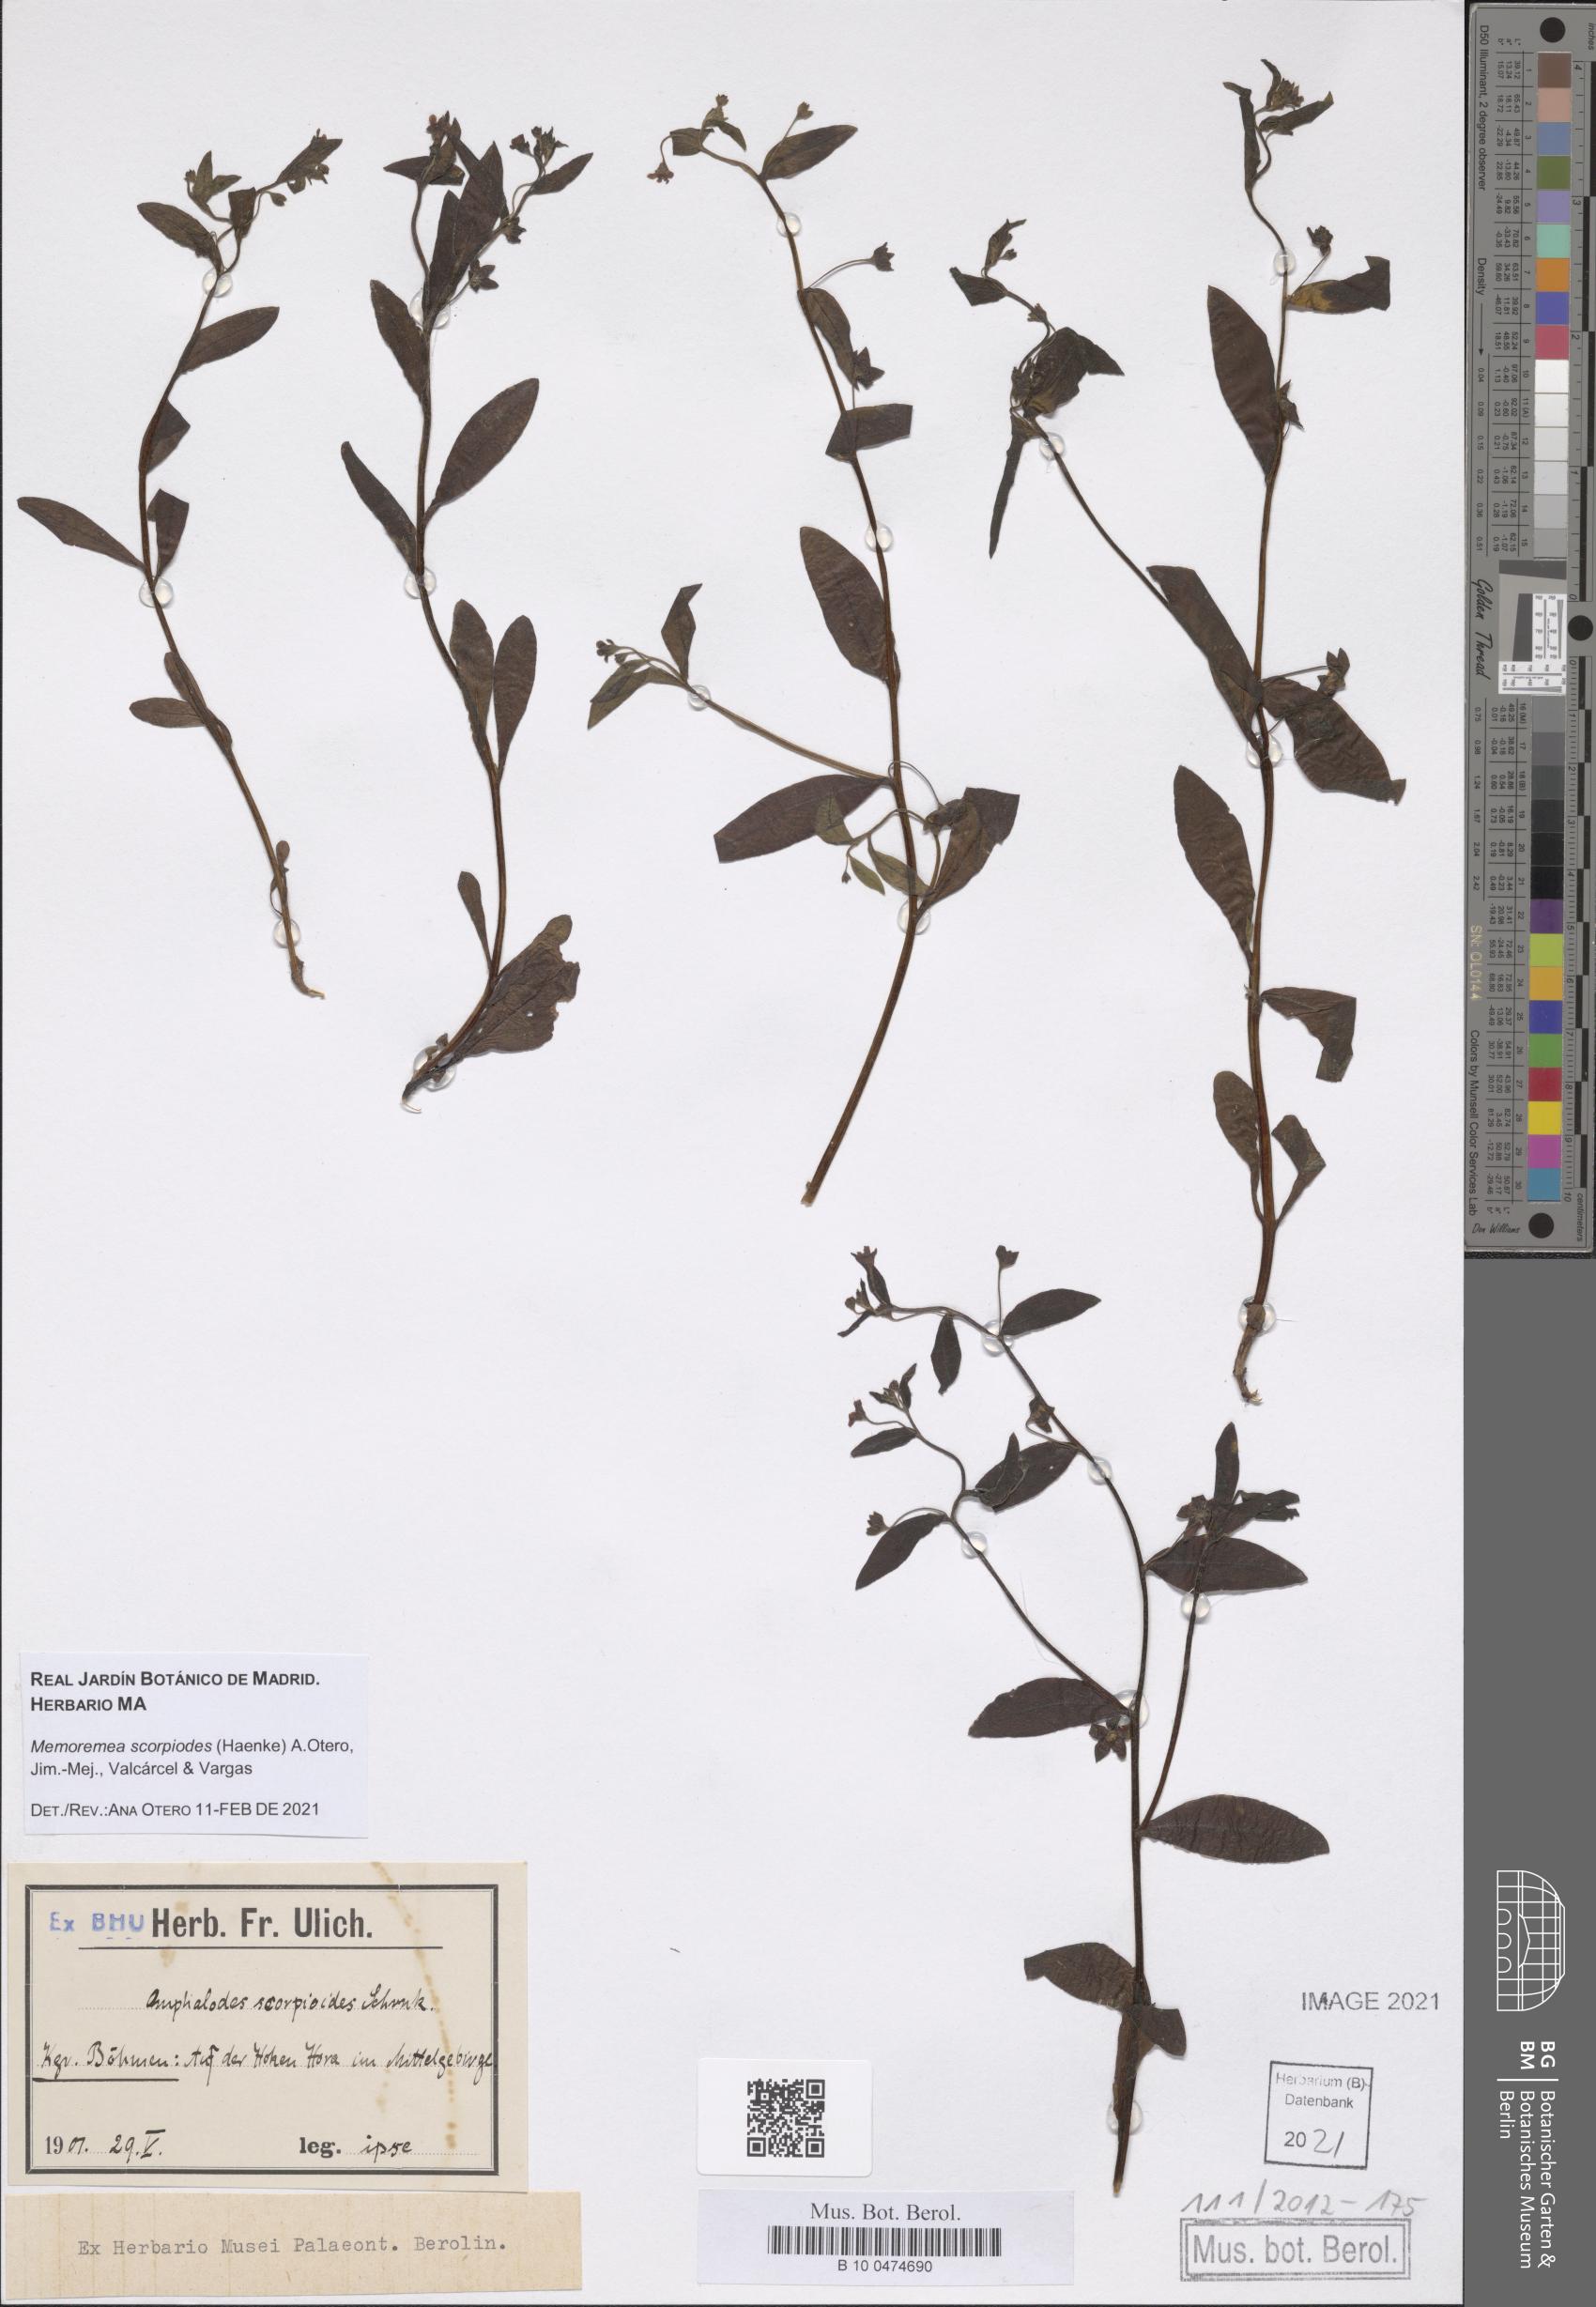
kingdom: Plantae
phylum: Tracheophyta
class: Magnoliopsida
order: Boraginales
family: Boraginaceae
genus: Memoremea
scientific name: Memoremea scorpioides
